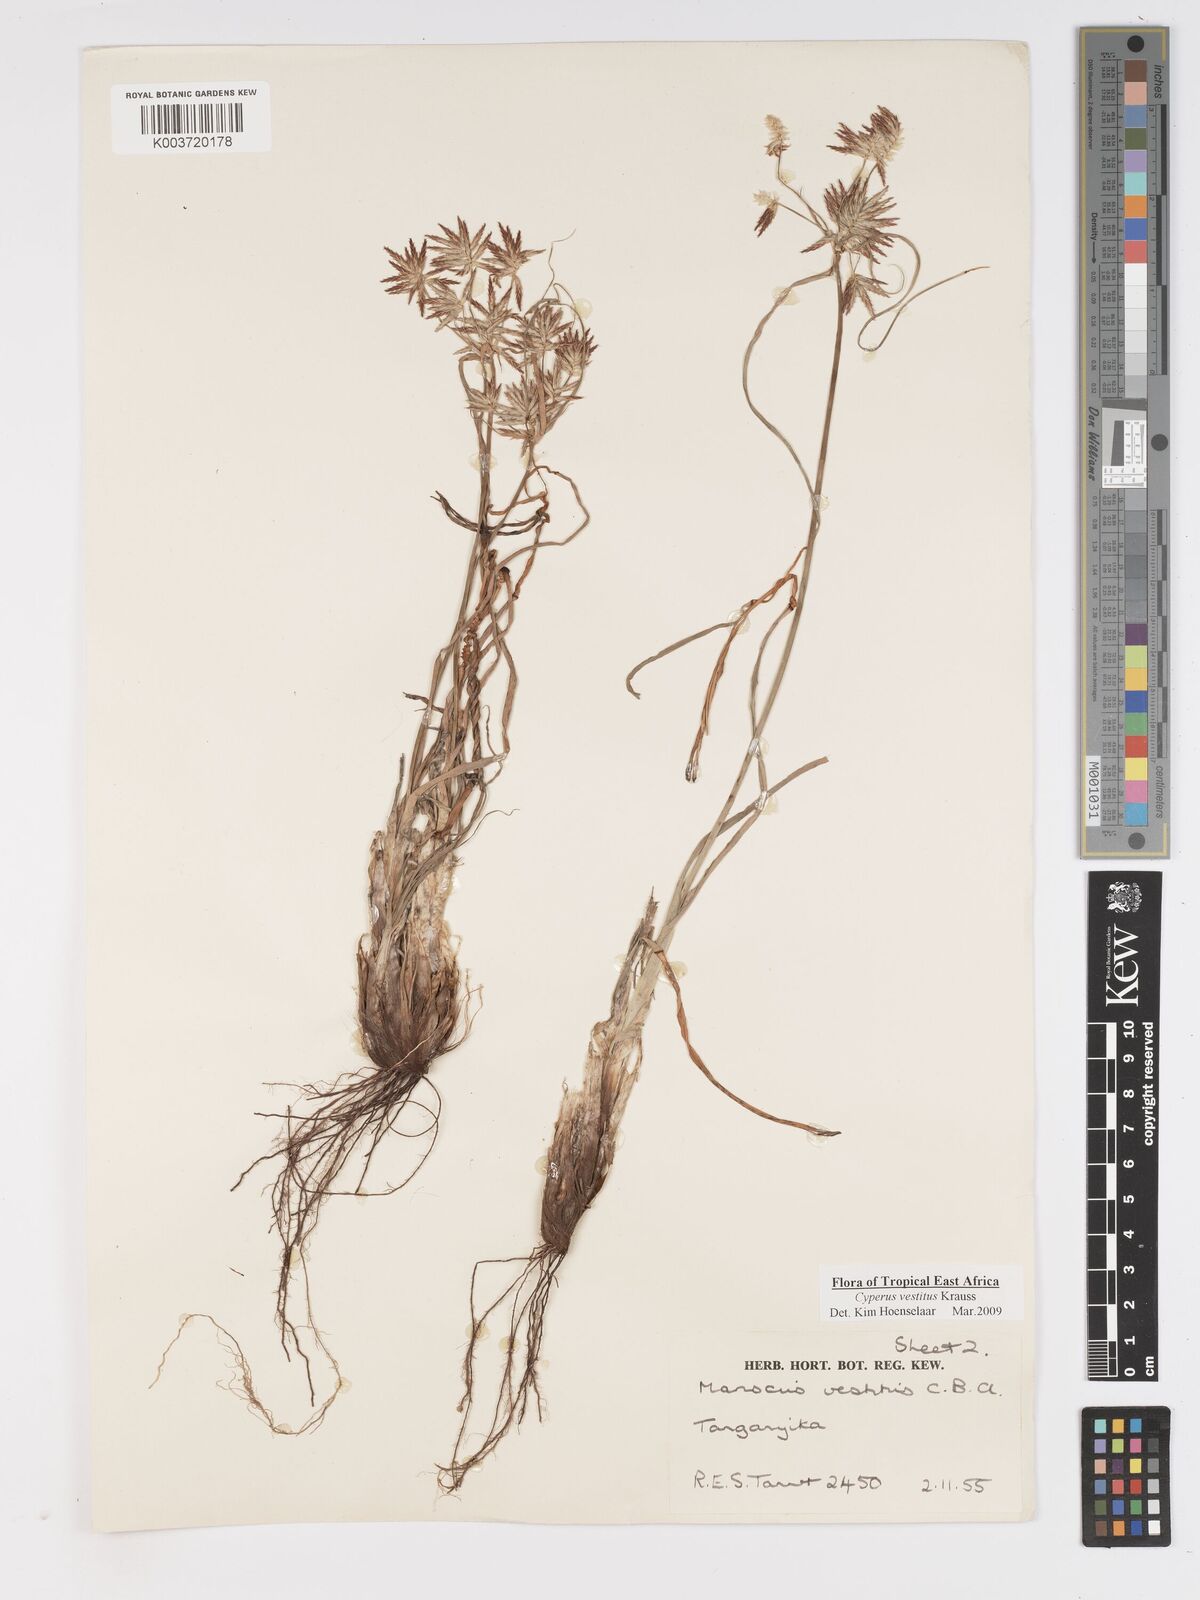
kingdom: Plantae
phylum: Tracheophyta
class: Liliopsida
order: Poales
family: Cyperaceae
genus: Cyperus
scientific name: Cyperus vestitus
